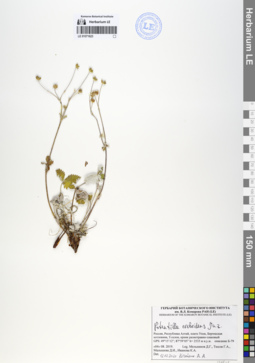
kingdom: Plantae
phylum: Tracheophyta
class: Magnoliopsida
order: Rosales
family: Rosaceae
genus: Potentilla
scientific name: Potentilla crebridens
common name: Congested cinquefoil
